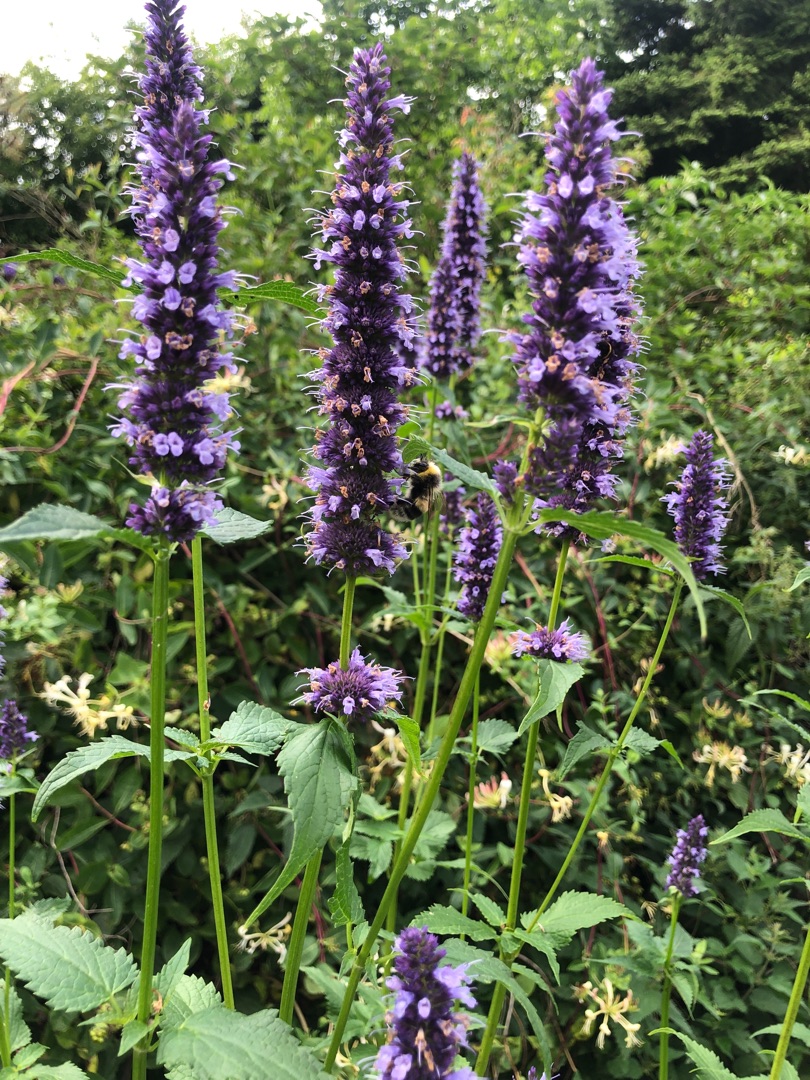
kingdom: Plantae
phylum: Tracheophyta
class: Magnoliopsida
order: Lamiales
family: Lamiaceae
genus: Agastache
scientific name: Agastache
